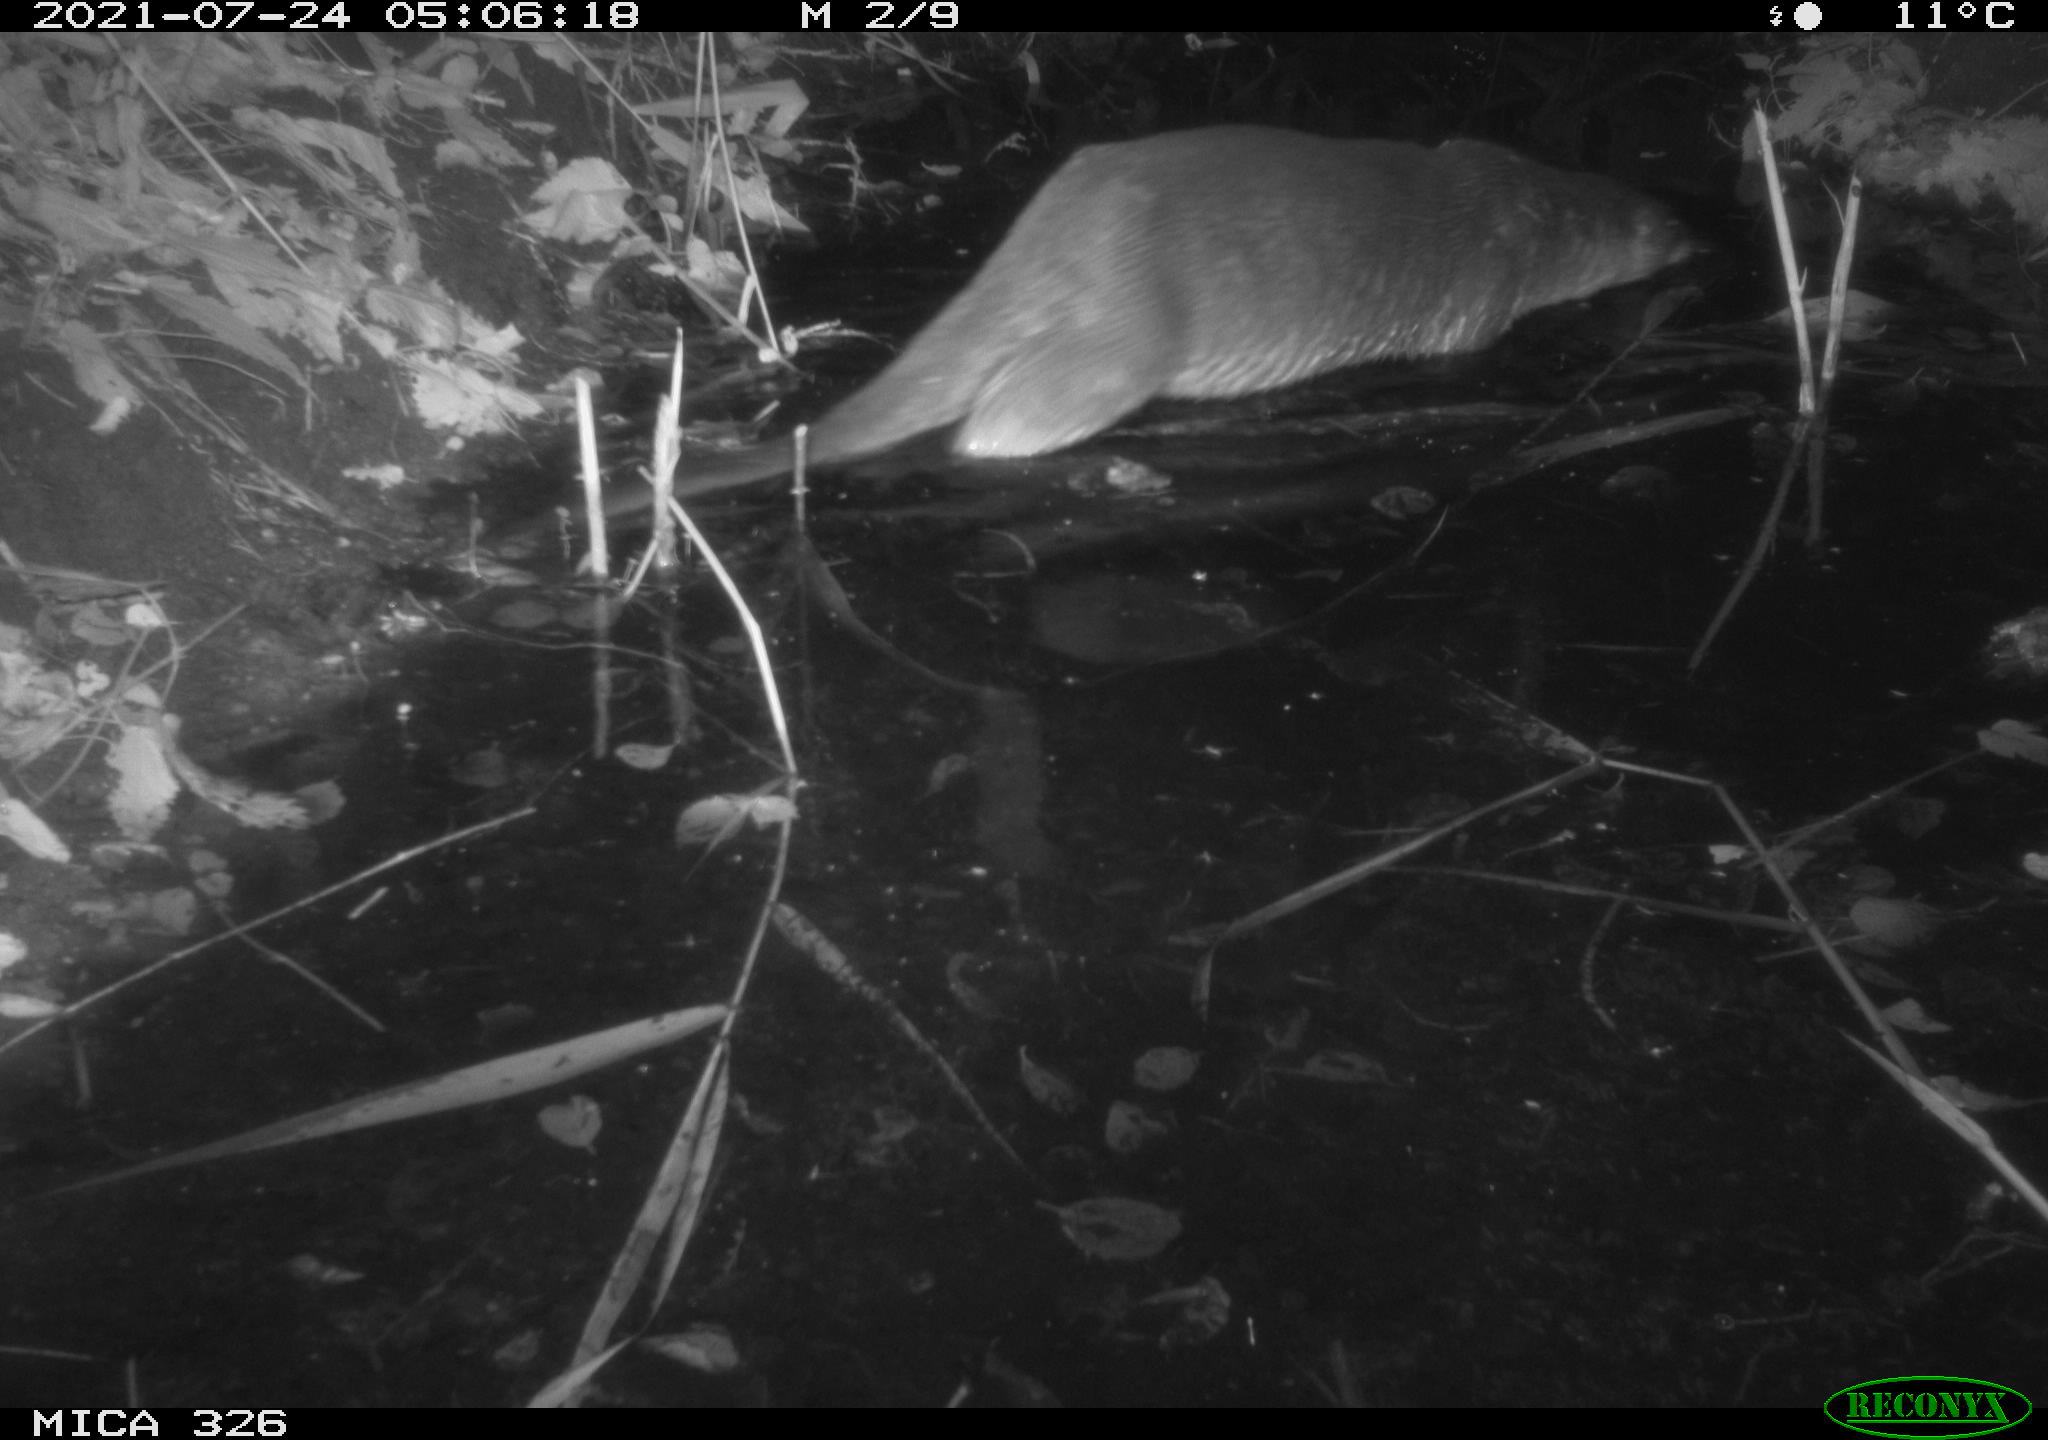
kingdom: Animalia
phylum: Chordata
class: Mammalia
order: Carnivora
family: Mustelidae
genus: Lutra
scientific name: Lutra lutra
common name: European otter
